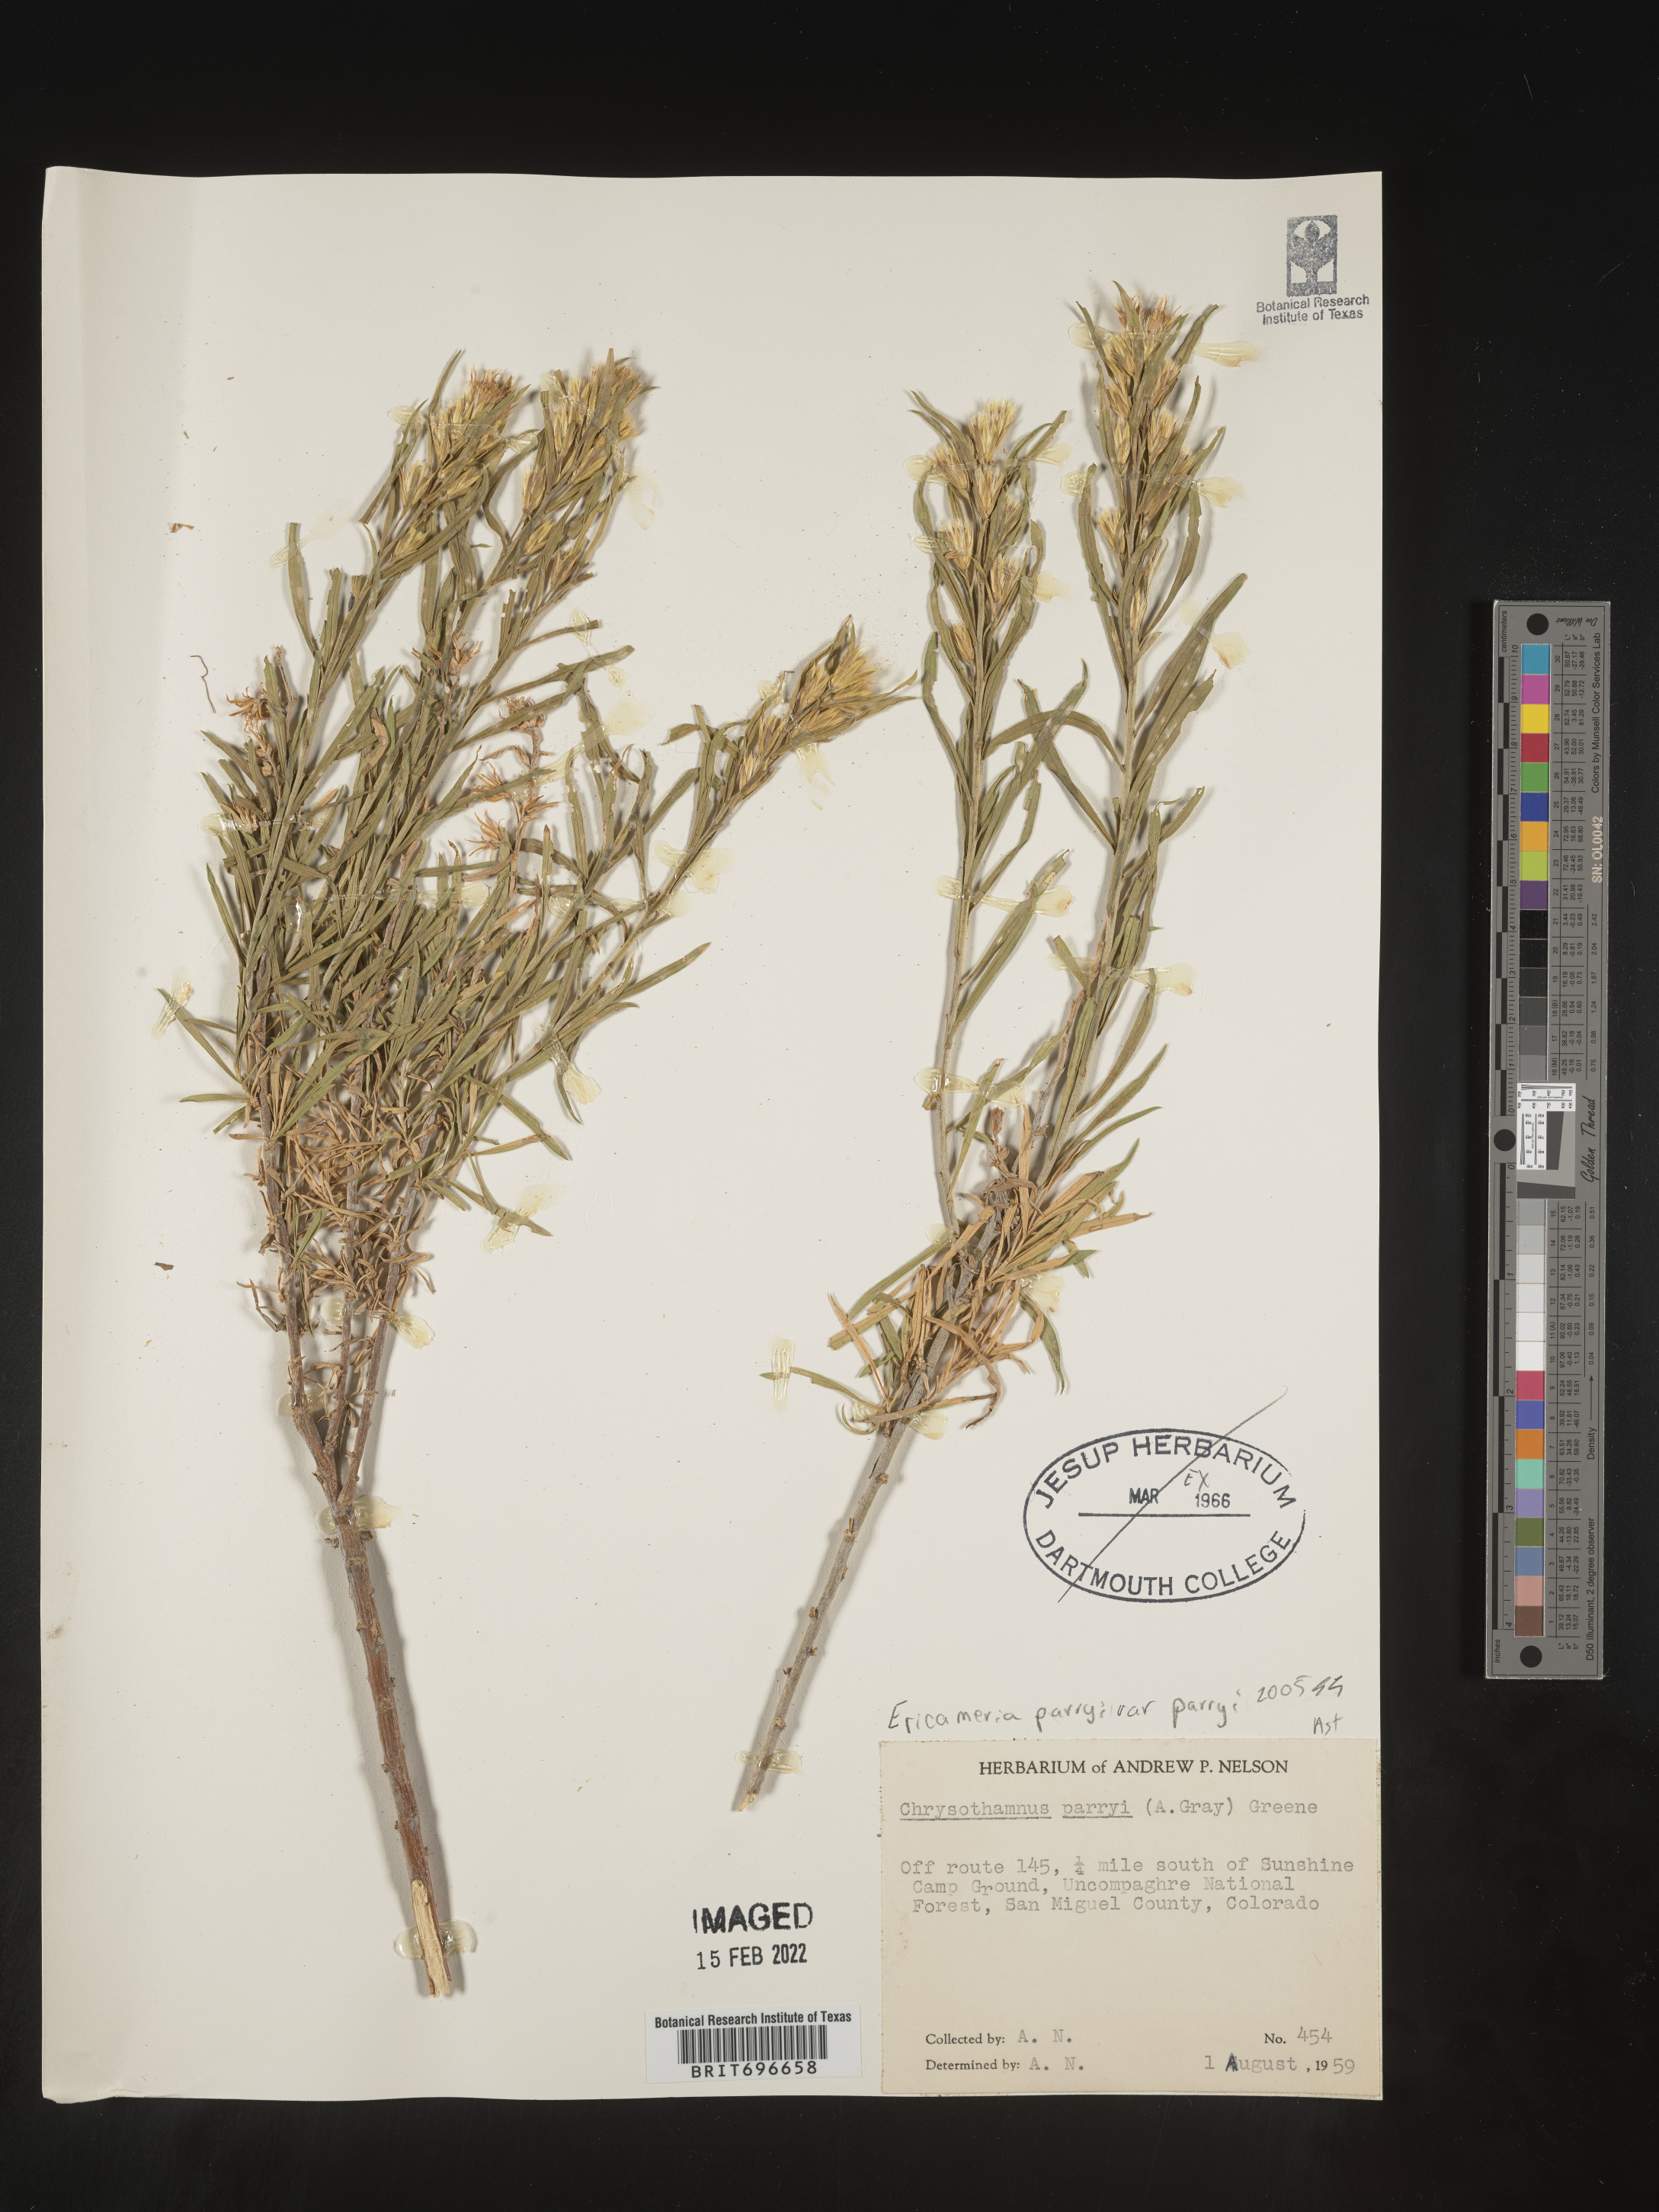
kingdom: Plantae
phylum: Tracheophyta
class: Magnoliopsida
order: Asterales
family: Asteraceae
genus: Ericameria
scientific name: Ericameria parryi
